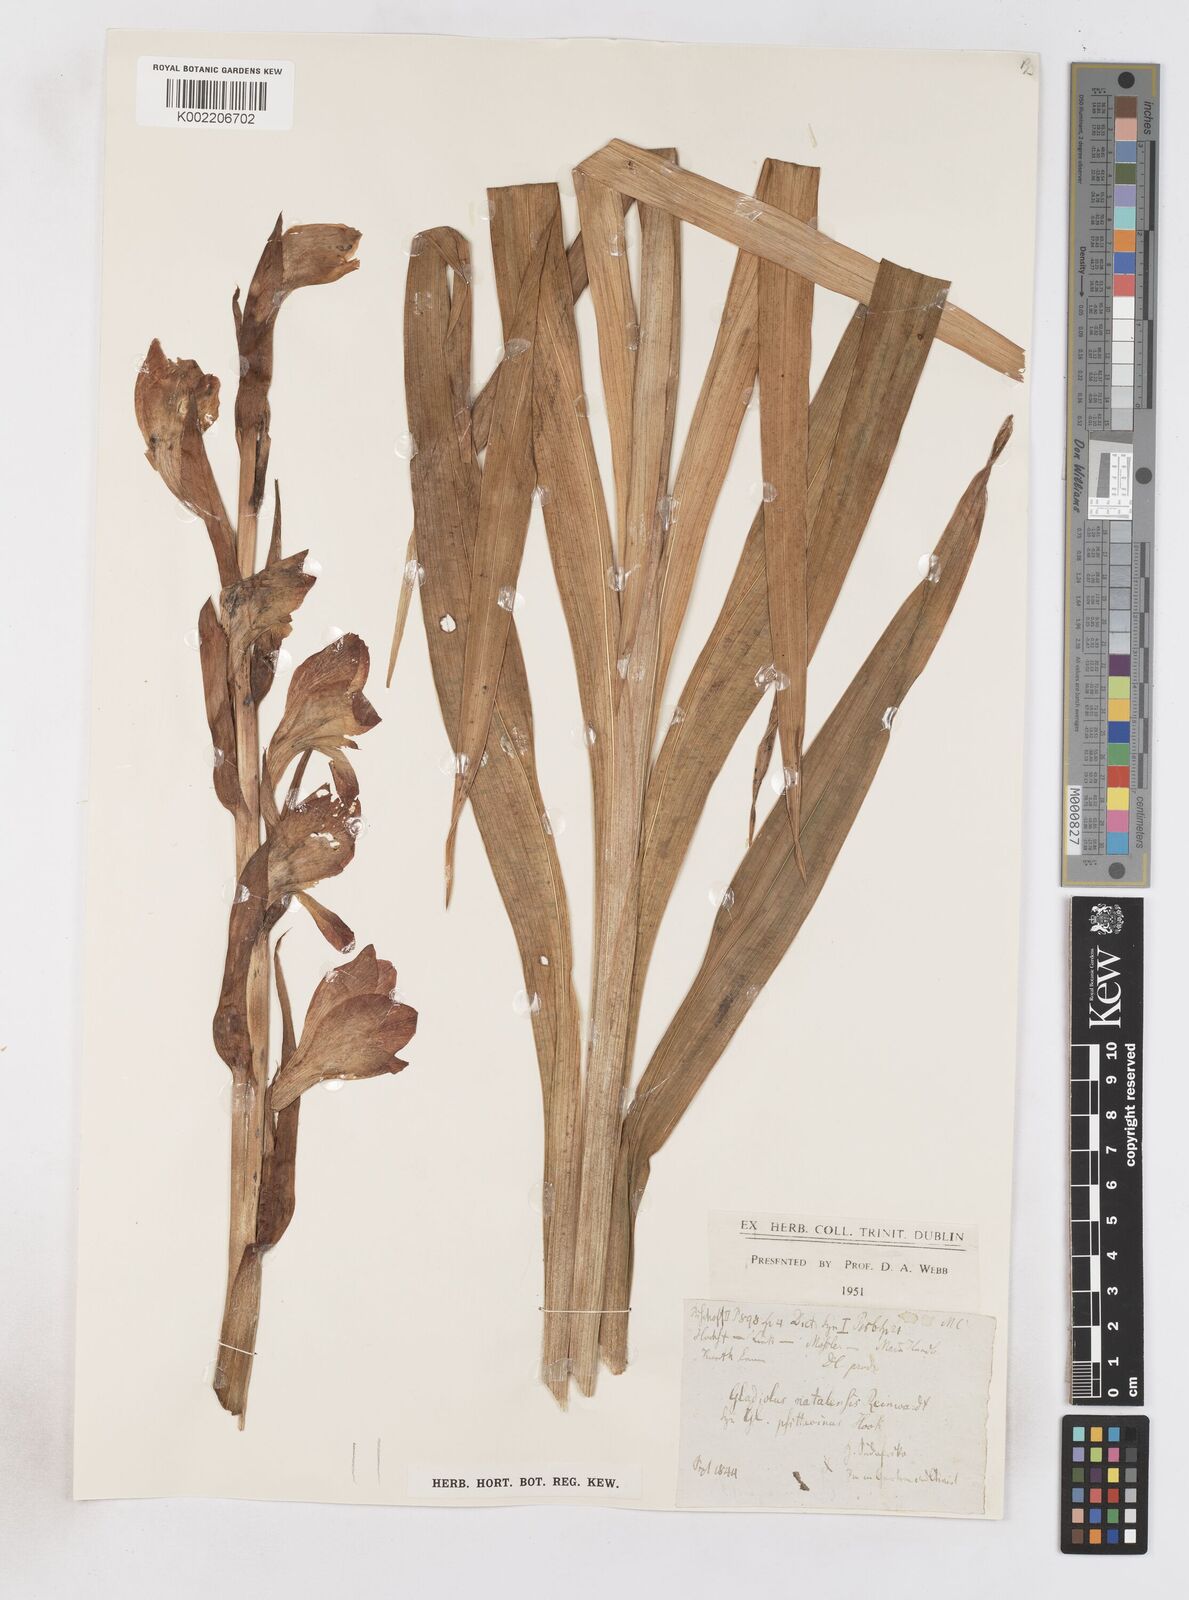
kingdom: Plantae
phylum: Tracheophyta
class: Liliopsida
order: Asparagales
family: Iridaceae
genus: Gladiolus
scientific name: Gladiolus dalenii
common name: Cornflag
